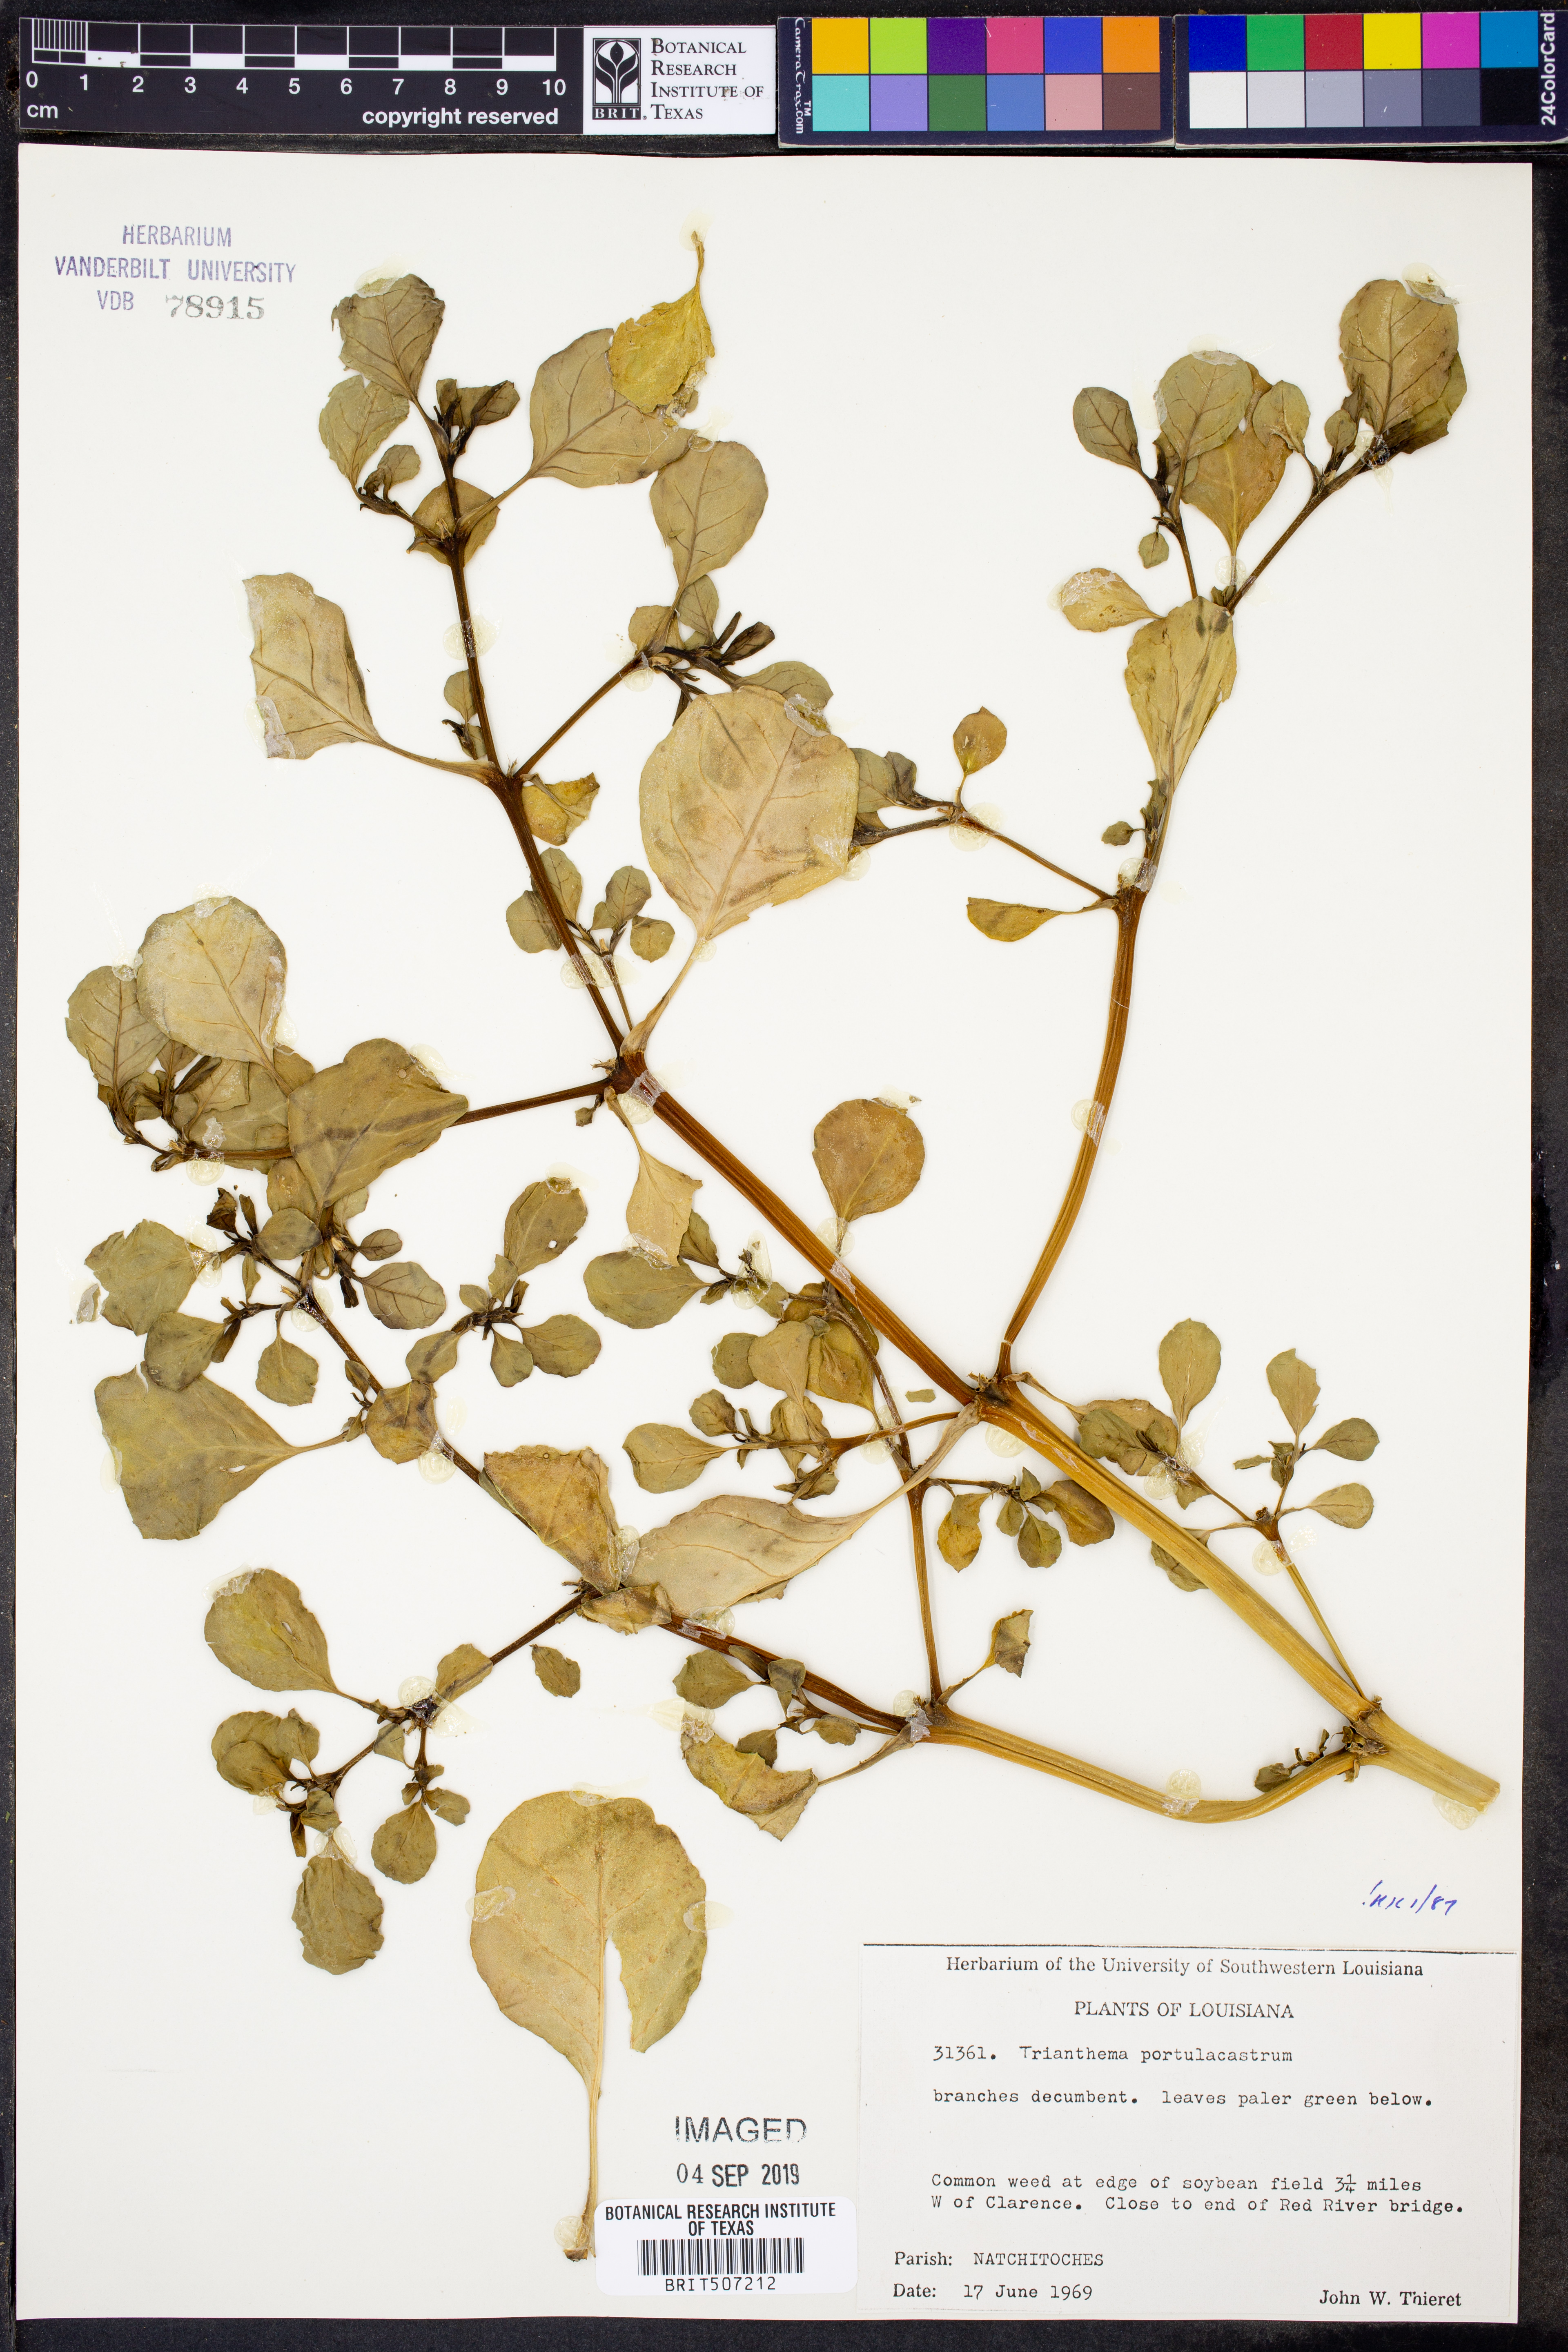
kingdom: Plantae
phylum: Tracheophyta
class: Magnoliopsida
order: Caryophyllales
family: Aizoaceae
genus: Trianthema
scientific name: Trianthema portulacastrum
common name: Desert horsepurslane
